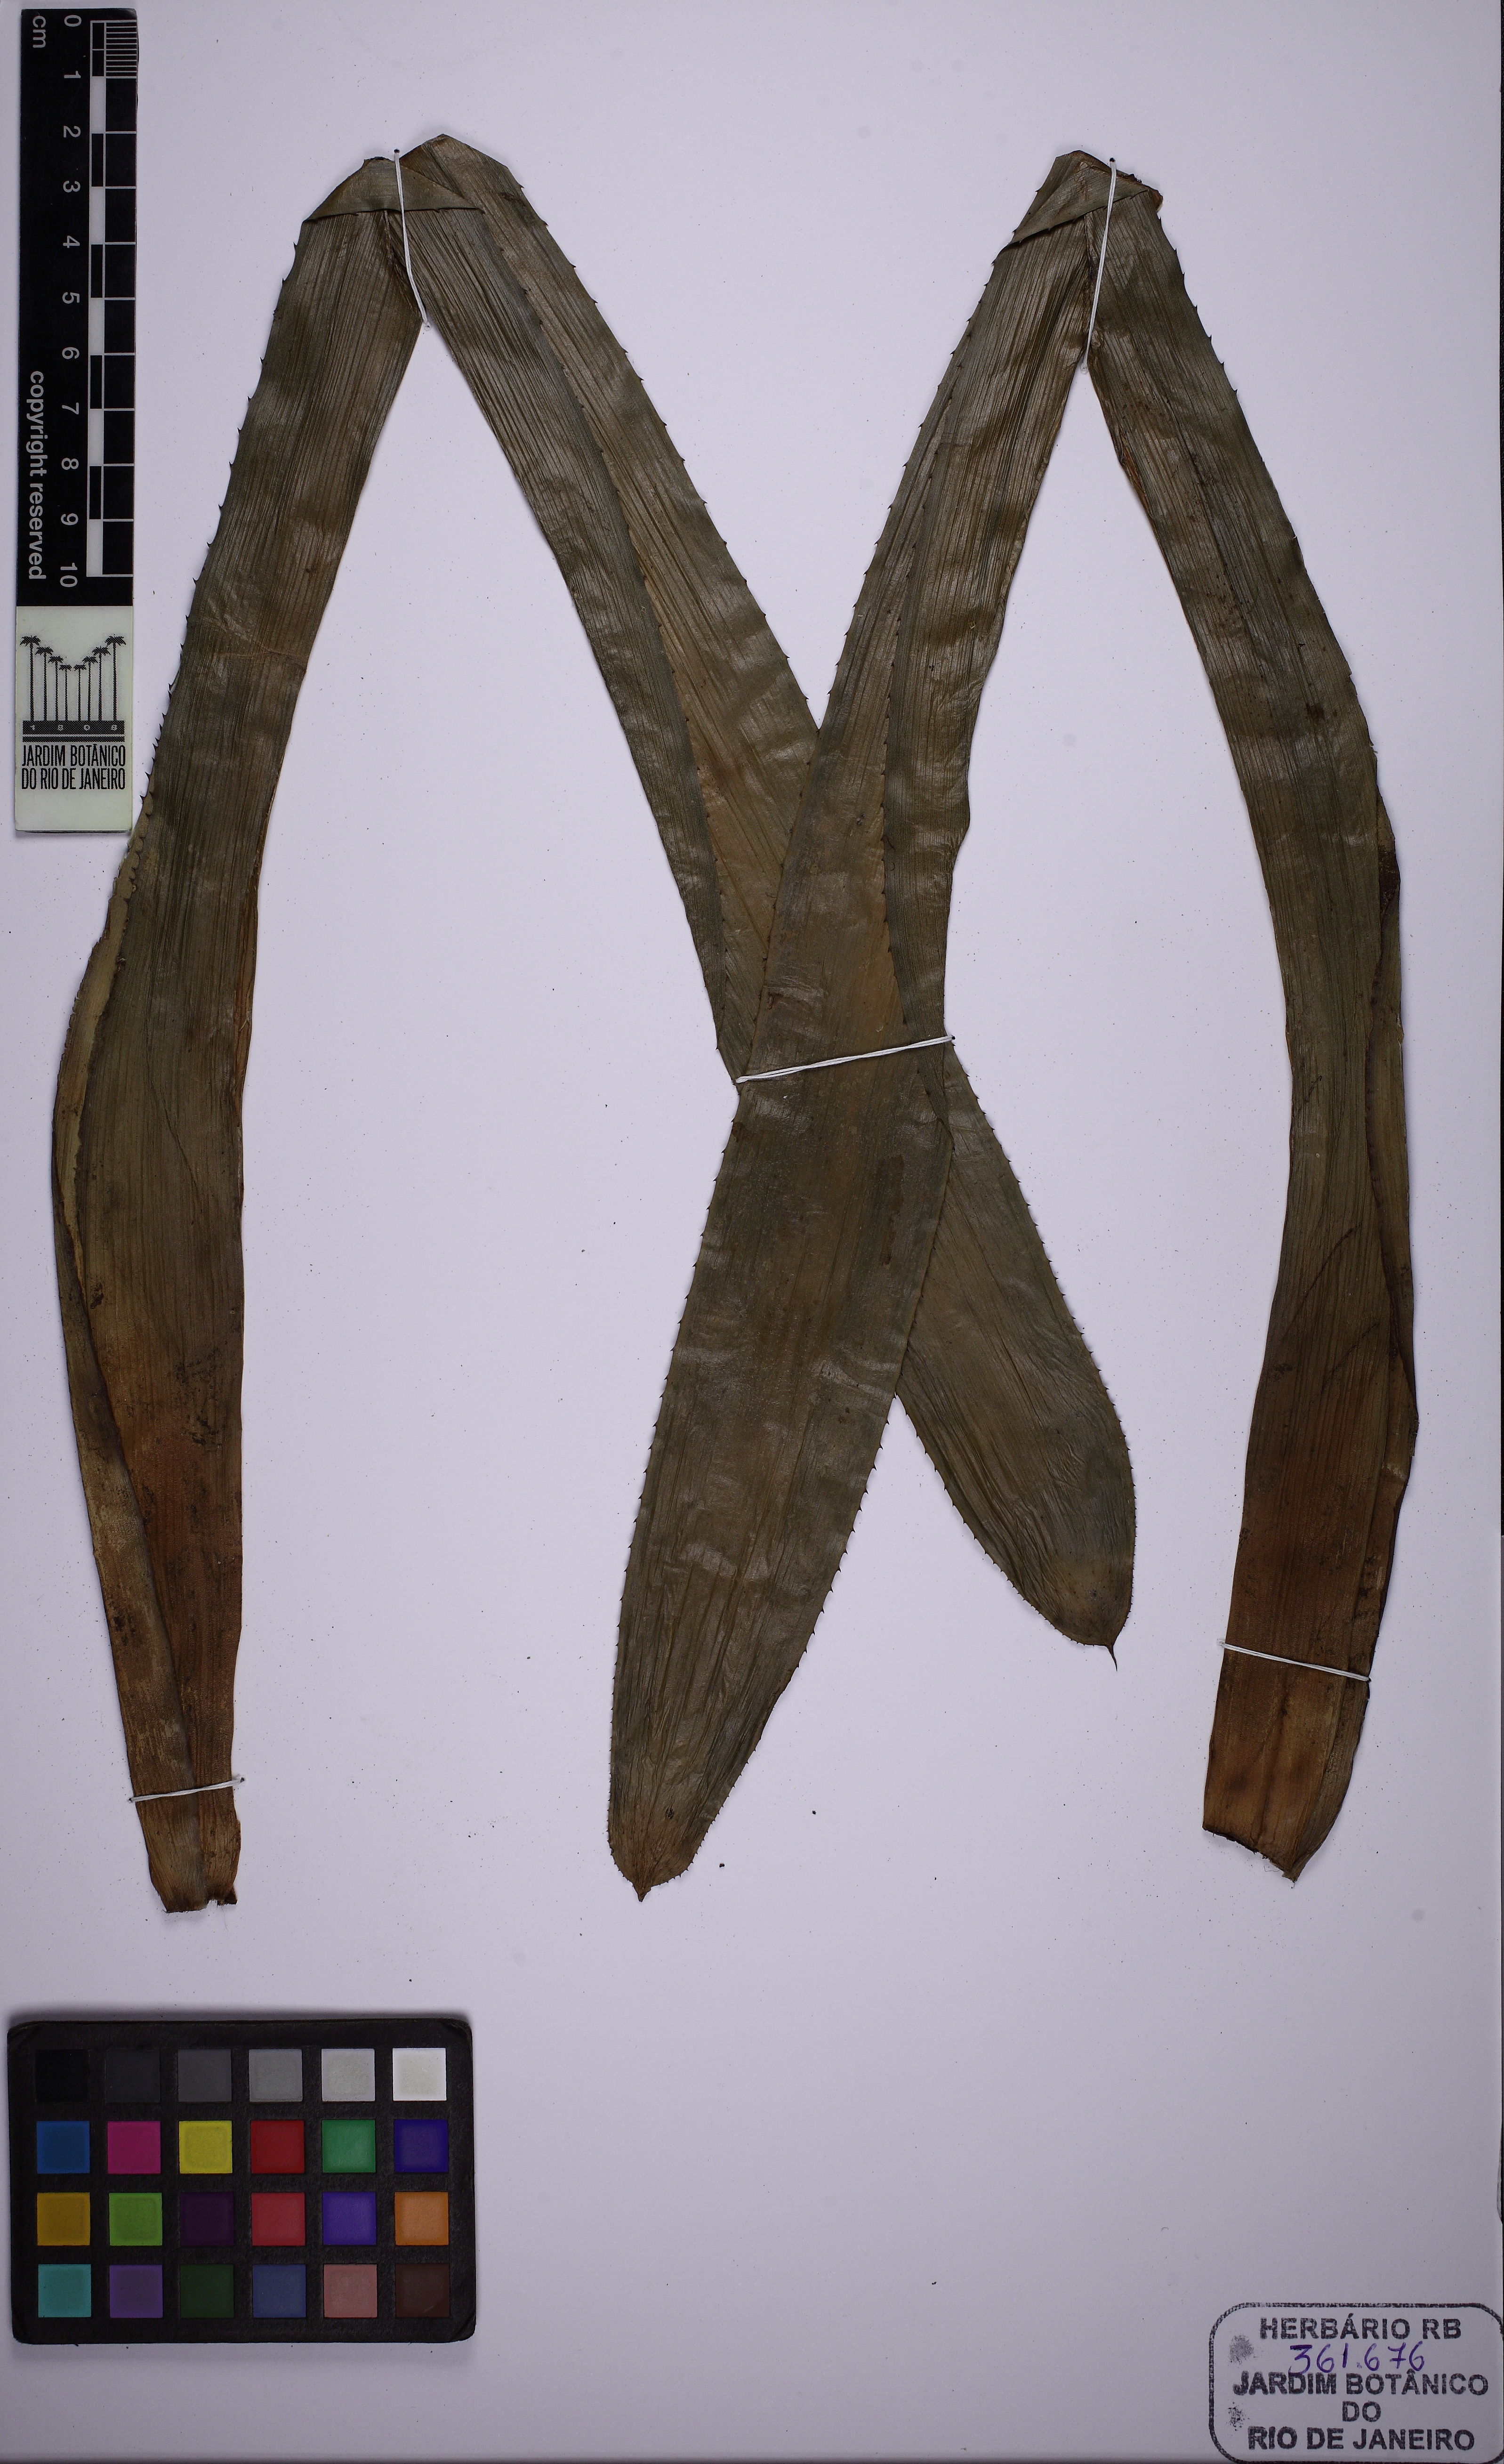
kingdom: Plantae
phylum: Tracheophyta
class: Liliopsida
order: Poales
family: Bromeliaceae
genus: Aechmea
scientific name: Aechmea fasciata
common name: Urnplant
